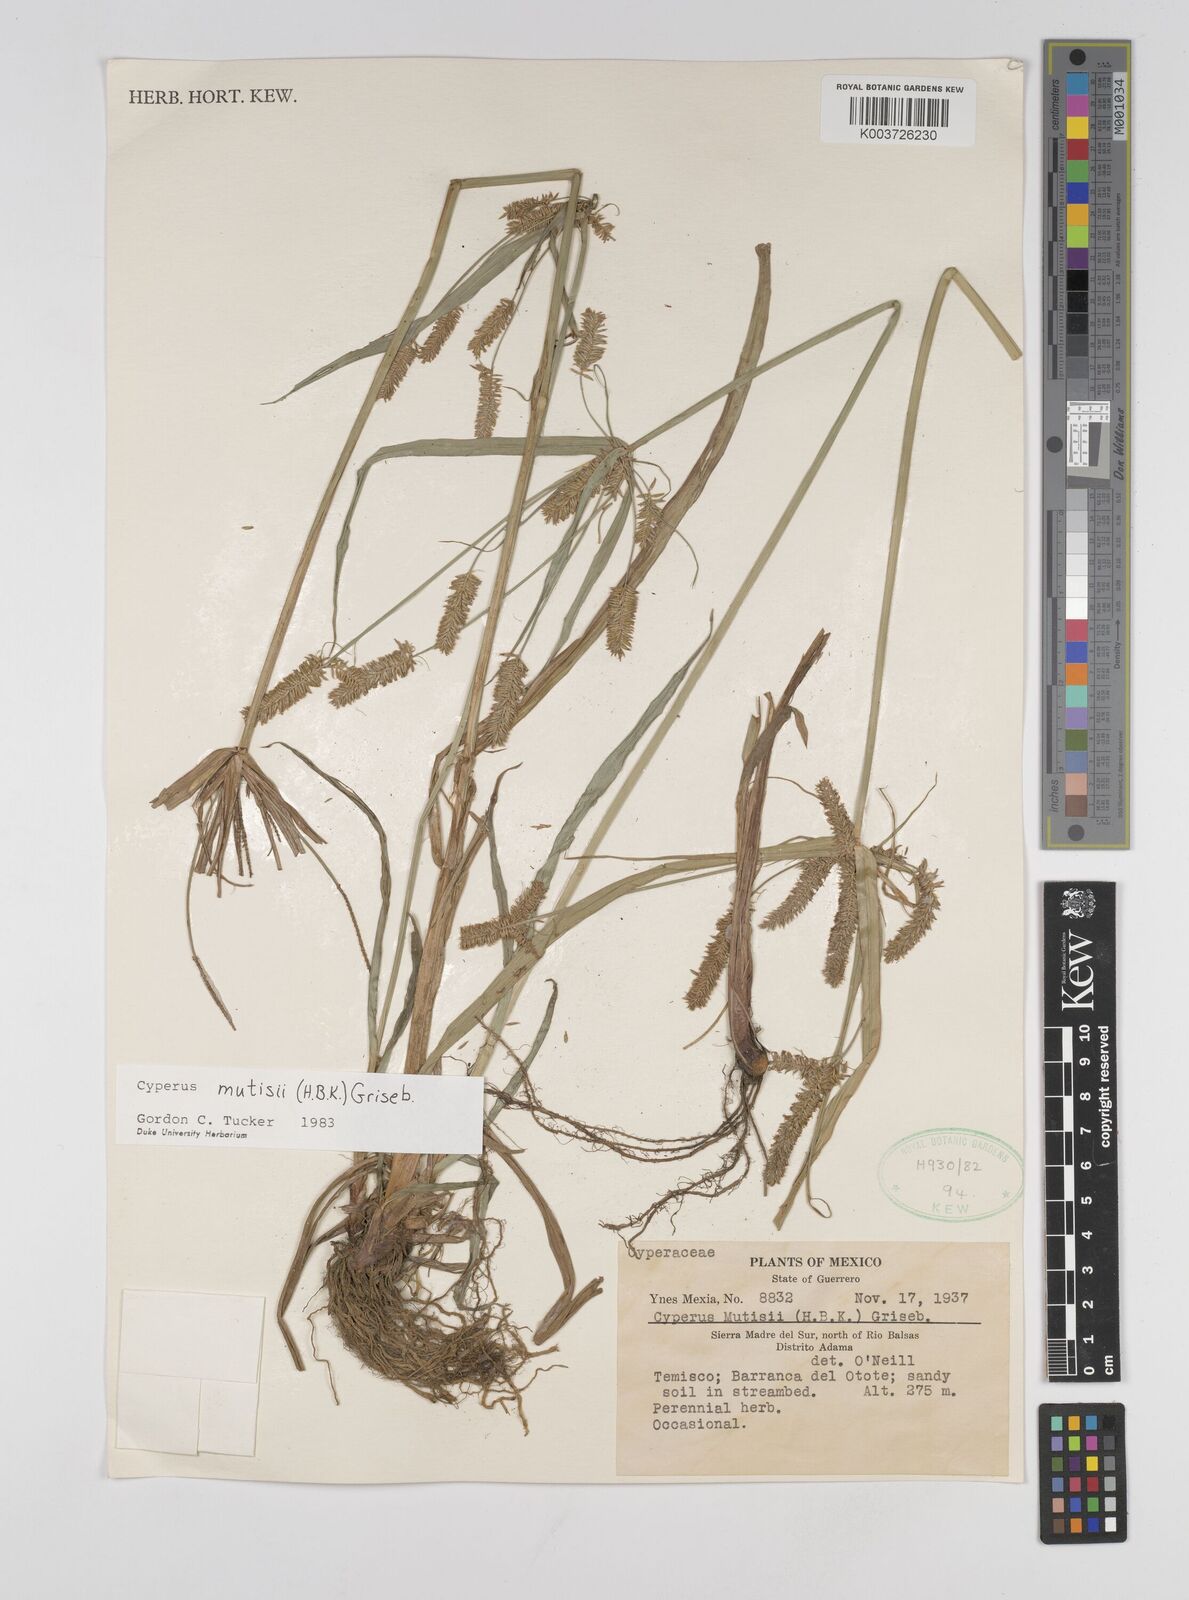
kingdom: Plantae
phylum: Tracheophyta
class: Liliopsida
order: Poales
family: Cyperaceae
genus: Cyperus
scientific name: Cyperus mutisii
